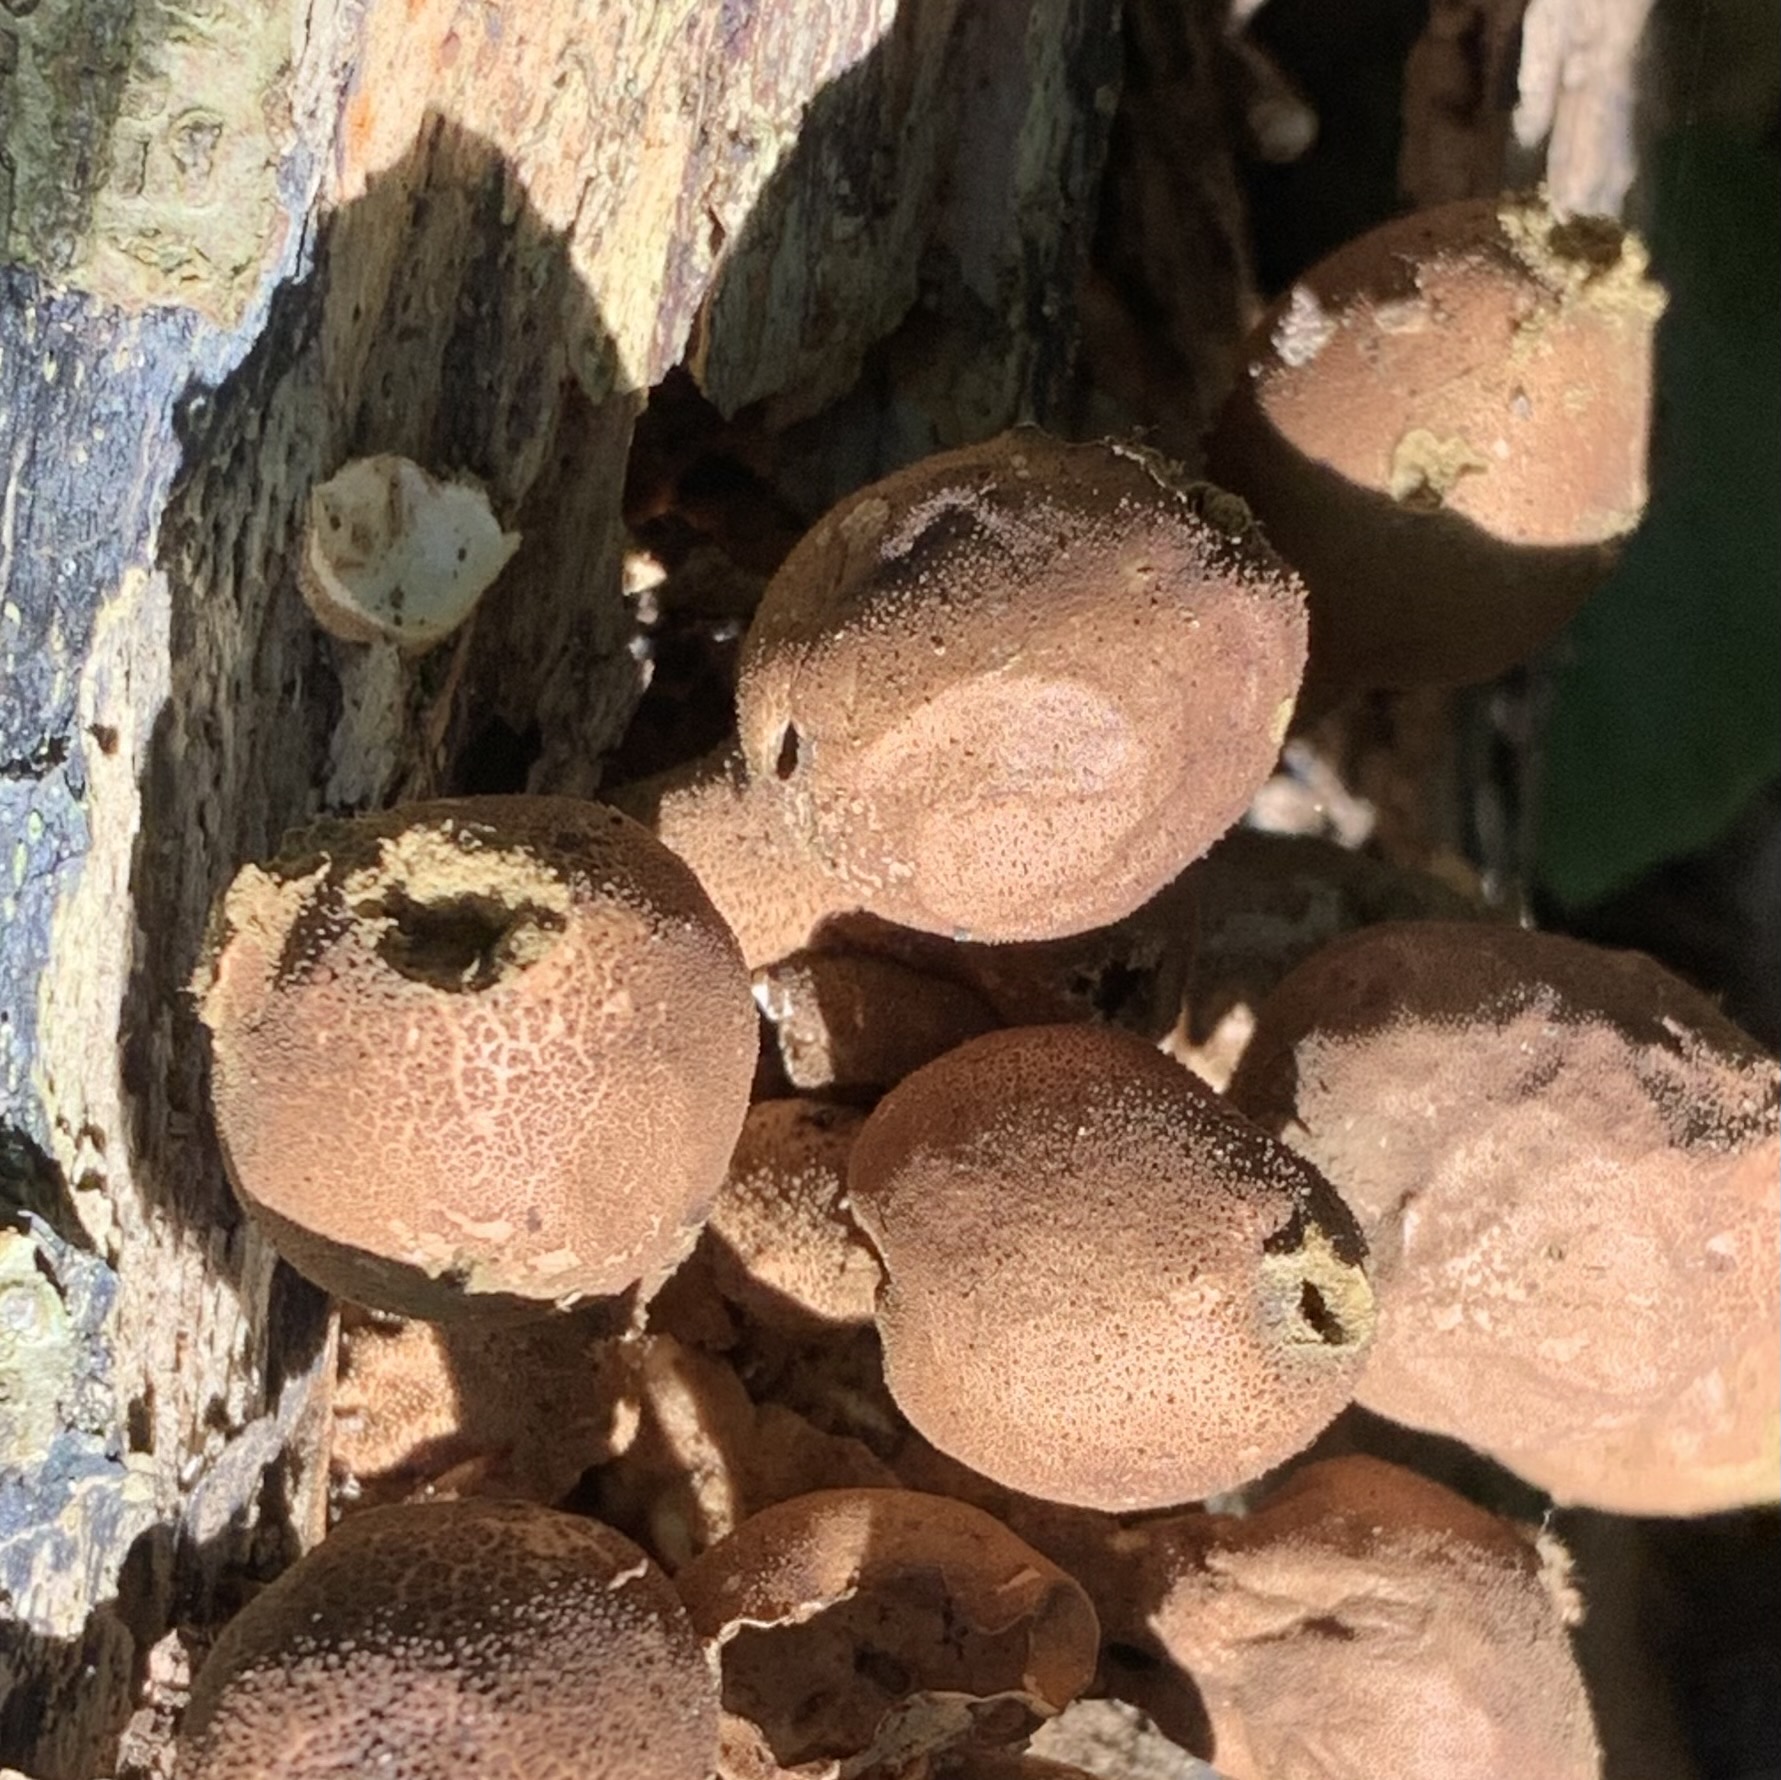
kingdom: Fungi
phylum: Basidiomycota
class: Agaricomycetes
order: Agaricales
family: Lycoperdaceae
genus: Apioperdon
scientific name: Apioperdon pyriforme
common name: pære-støvbold
